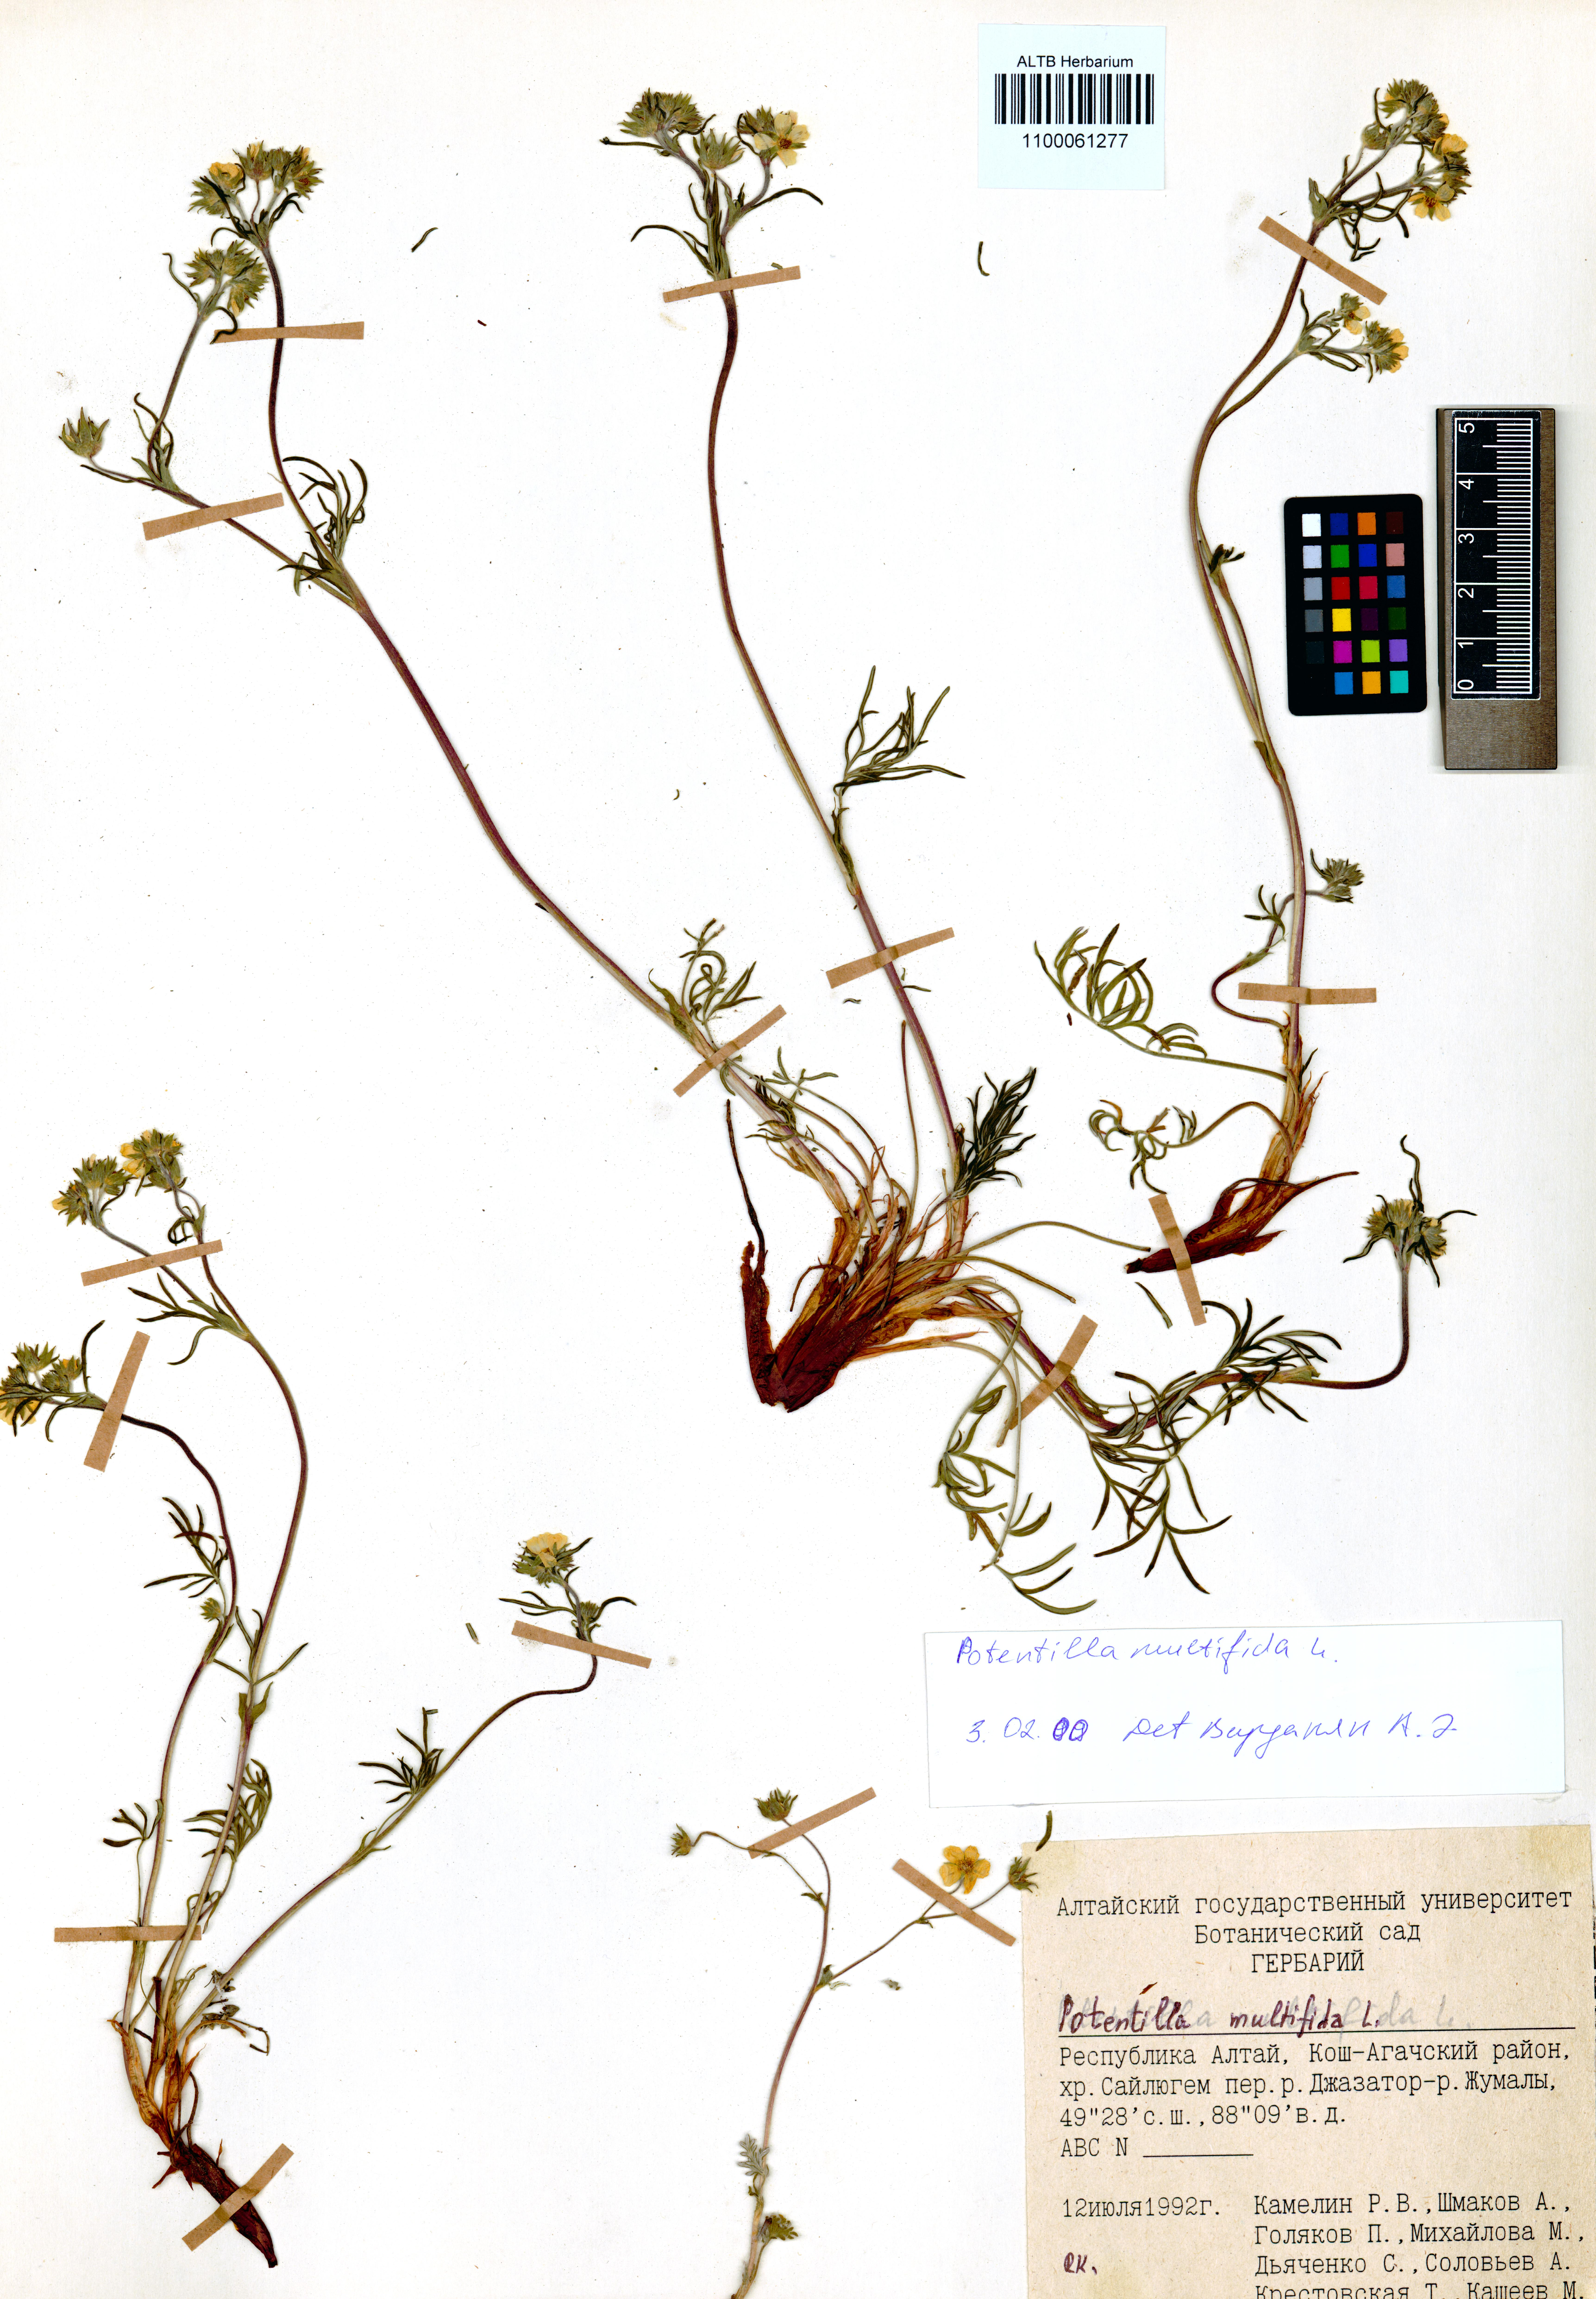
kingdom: Plantae
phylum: Tracheophyta
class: Magnoliopsida
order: Rosales
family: Rosaceae
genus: Potentilla
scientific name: Potentilla multifida
